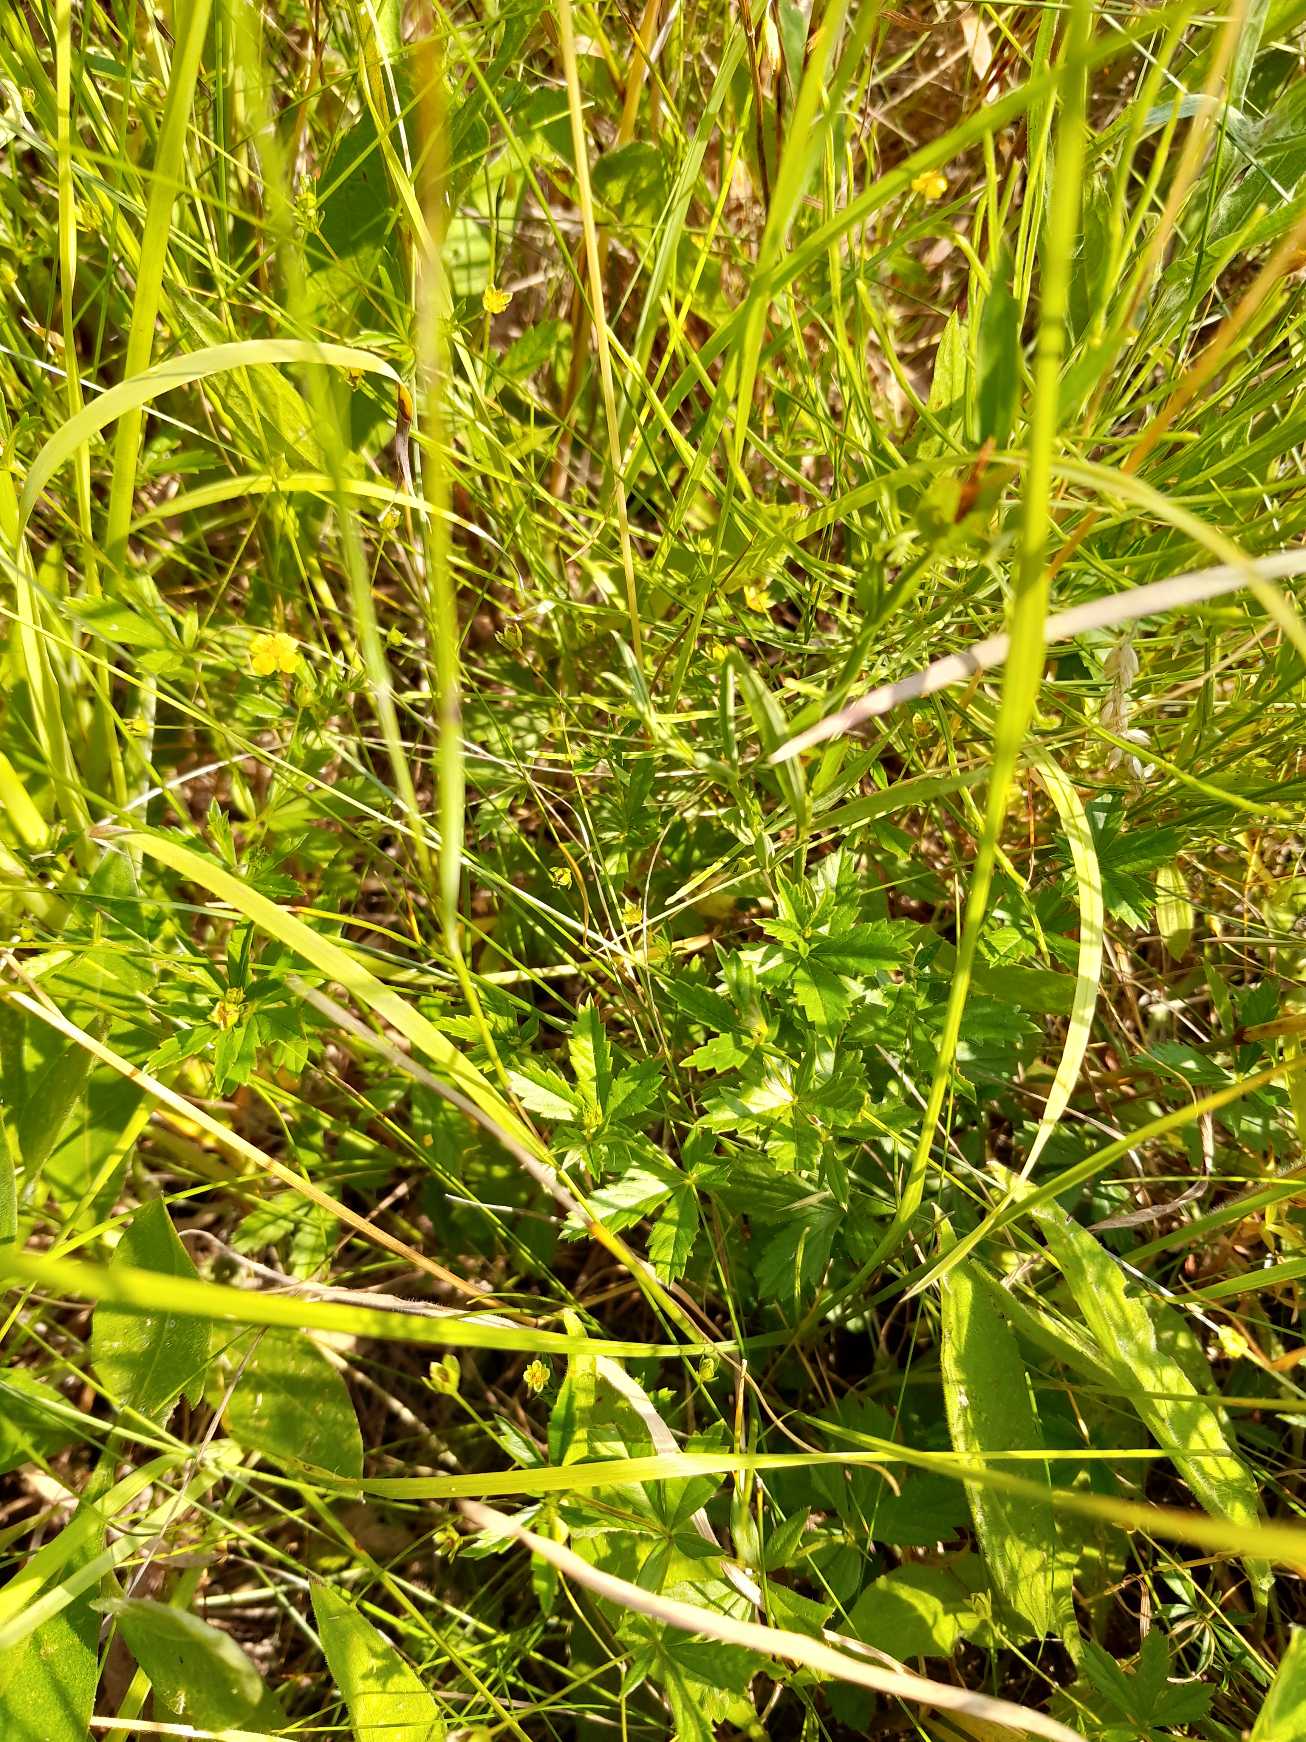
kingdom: Plantae
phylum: Tracheophyta
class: Magnoliopsida
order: Rosales
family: Rosaceae
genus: Potentilla
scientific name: Potentilla erecta
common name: Tormentil
